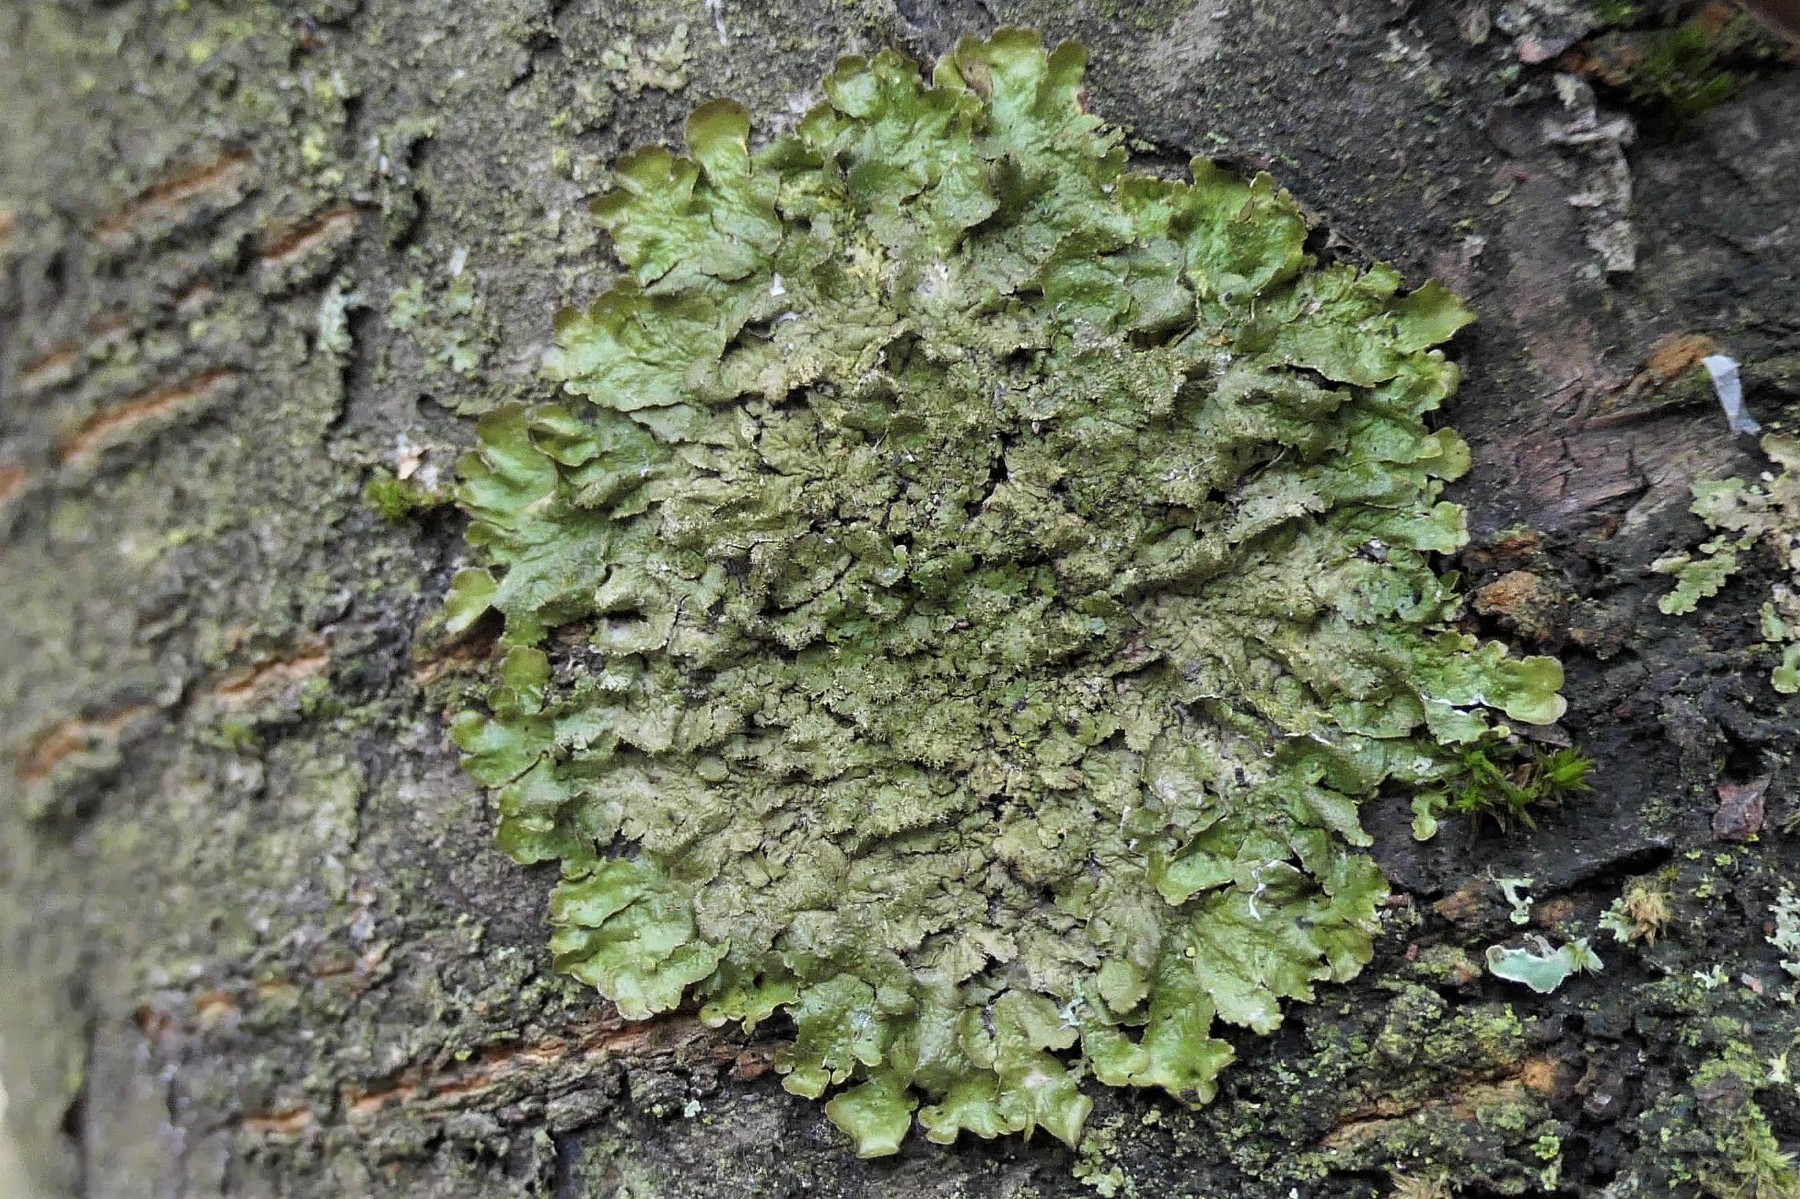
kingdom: Fungi
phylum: Ascomycota
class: Lecanoromycetes
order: Lecanorales
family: Parmeliaceae
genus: Melanelixia
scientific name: Melanelixia glabratula
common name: glinsende skållav
